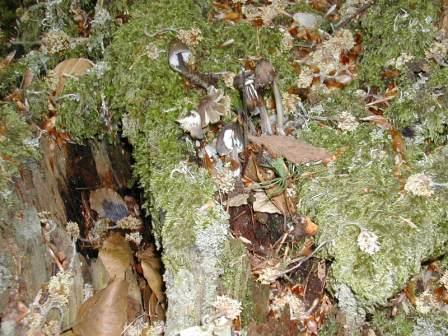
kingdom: Fungi
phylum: Basidiomycota
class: Agaricomycetes
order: Agaricales
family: Mycenaceae
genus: Mycena
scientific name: Mycena abramsii
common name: sommer-huesvamp
